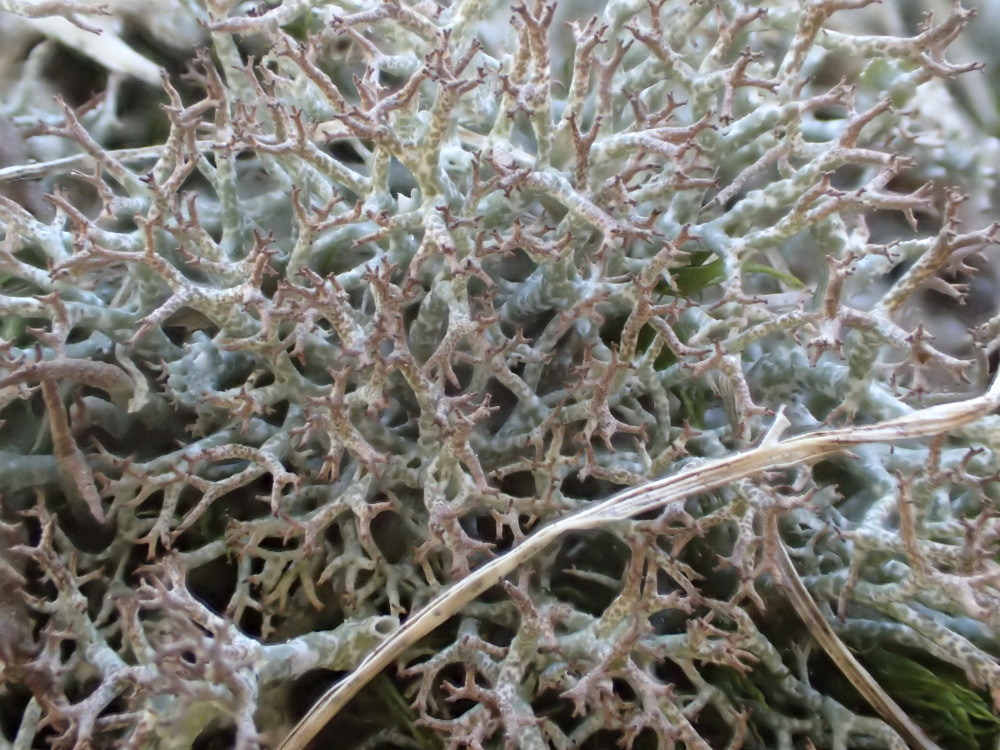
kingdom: Fungi
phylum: Ascomycota
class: Lecanoromycetes
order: Lecanorales
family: Cladoniaceae
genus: Cladonia
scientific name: Cladonia rangiformis
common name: spættet bægerlav
